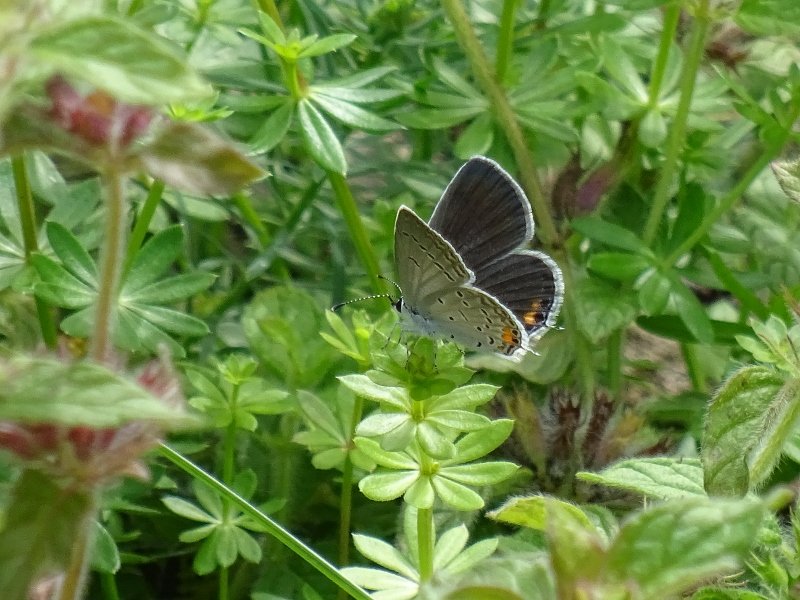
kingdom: Animalia
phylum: Arthropoda
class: Insecta
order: Lepidoptera
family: Lycaenidae
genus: Elkalyce
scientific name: Elkalyce comyntas
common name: Eastern Tailed-Blue
